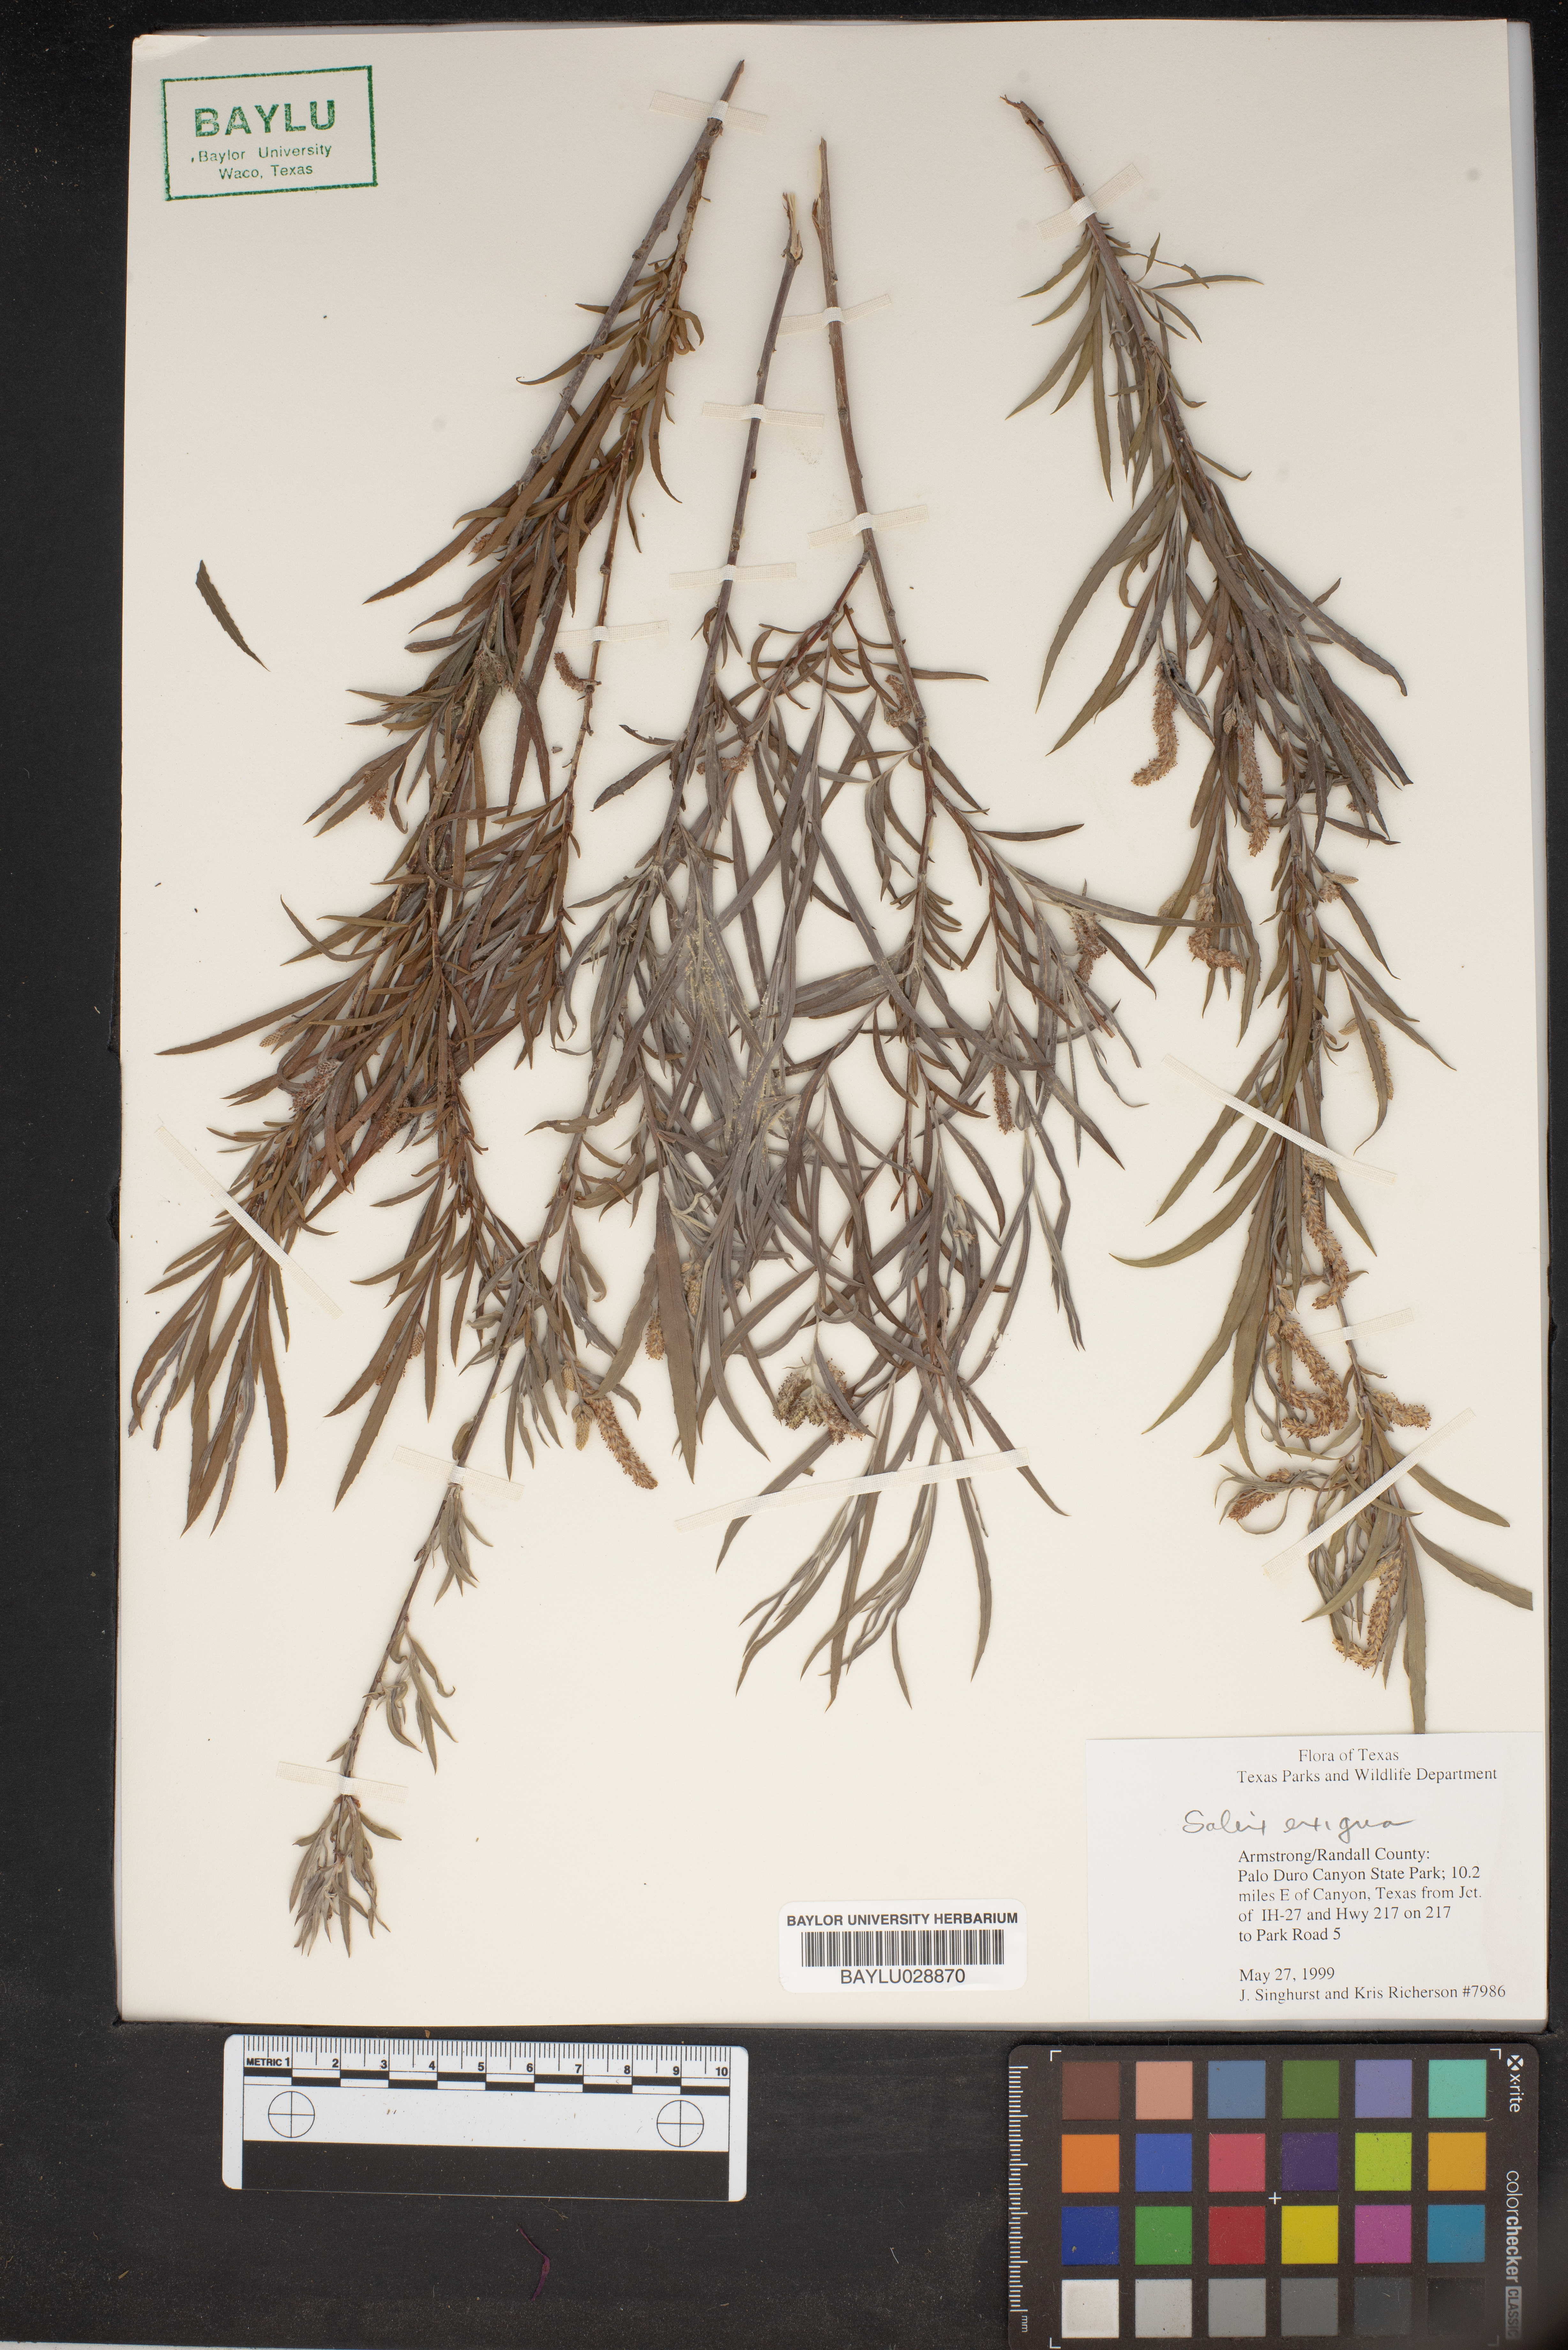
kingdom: Plantae
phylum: Tracheophyta
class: Magnoliopsida
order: Malpighiales
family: Salicaceae
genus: Salix
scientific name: Salix exigua
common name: Coyote willow
